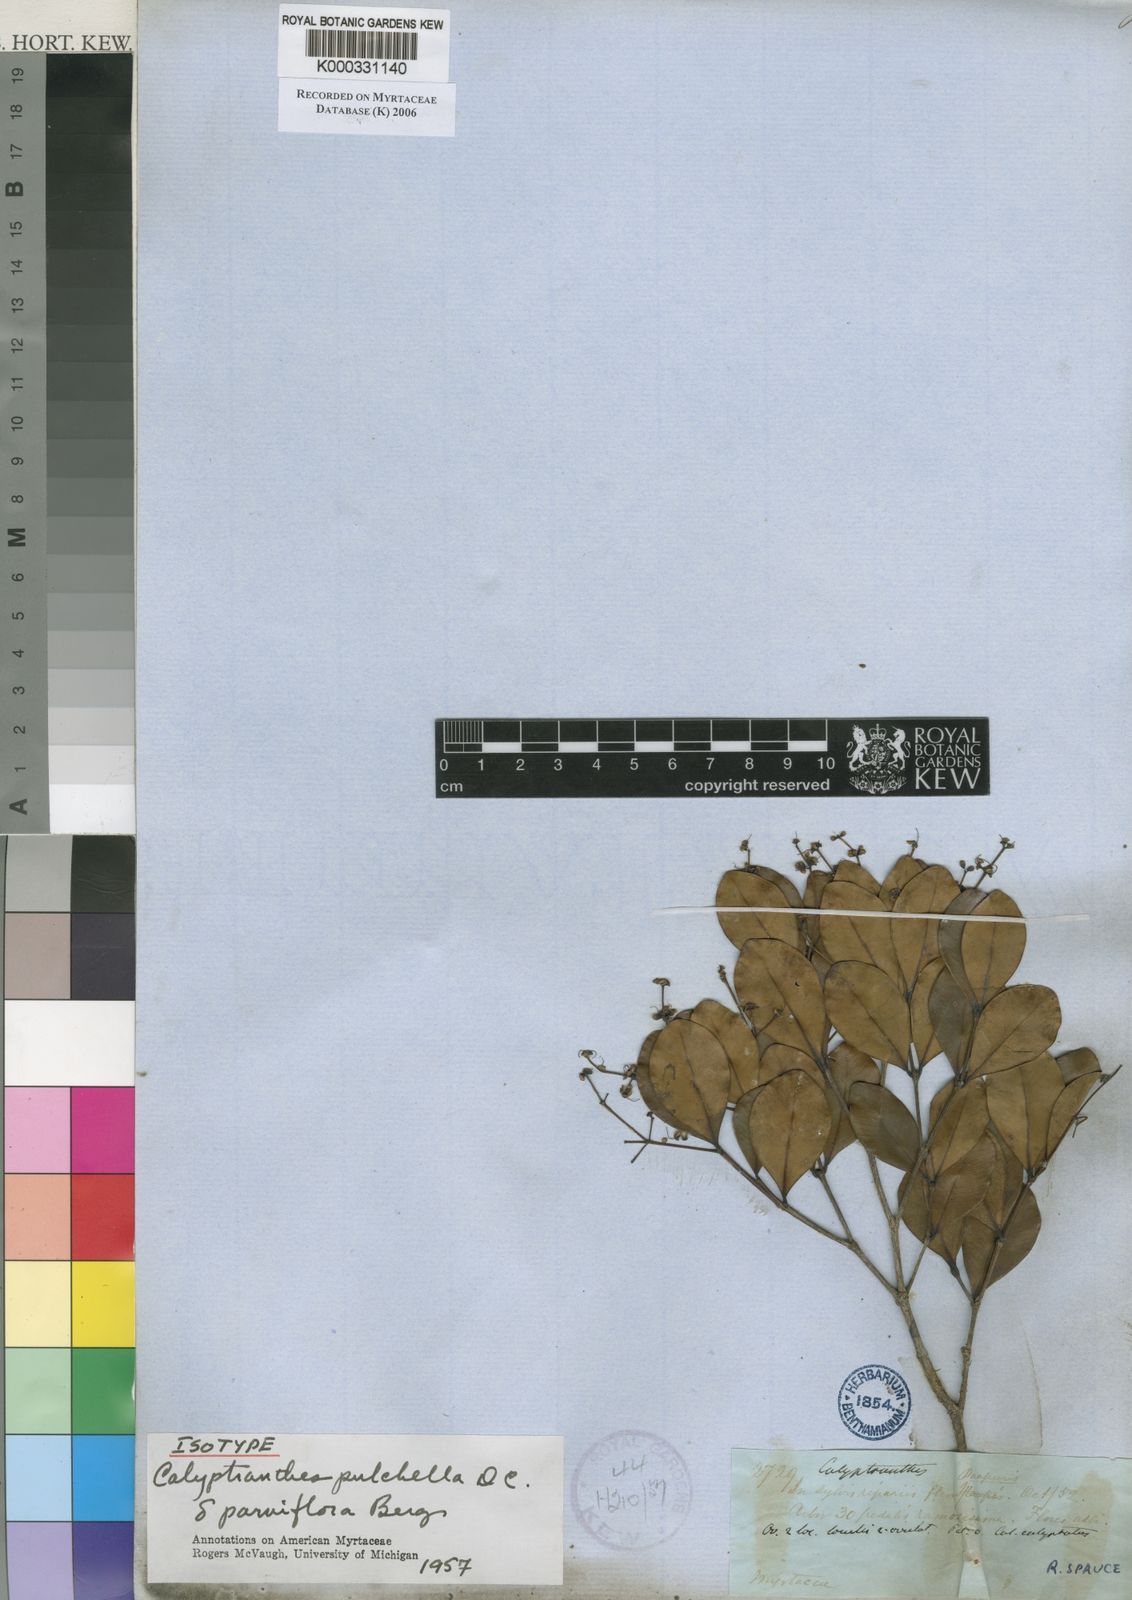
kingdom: Plantae
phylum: Tracheophyta
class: Magnoliopsida
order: Myrtales
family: Myrtaceae
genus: Myrcia
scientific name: Myrcia pulchella
